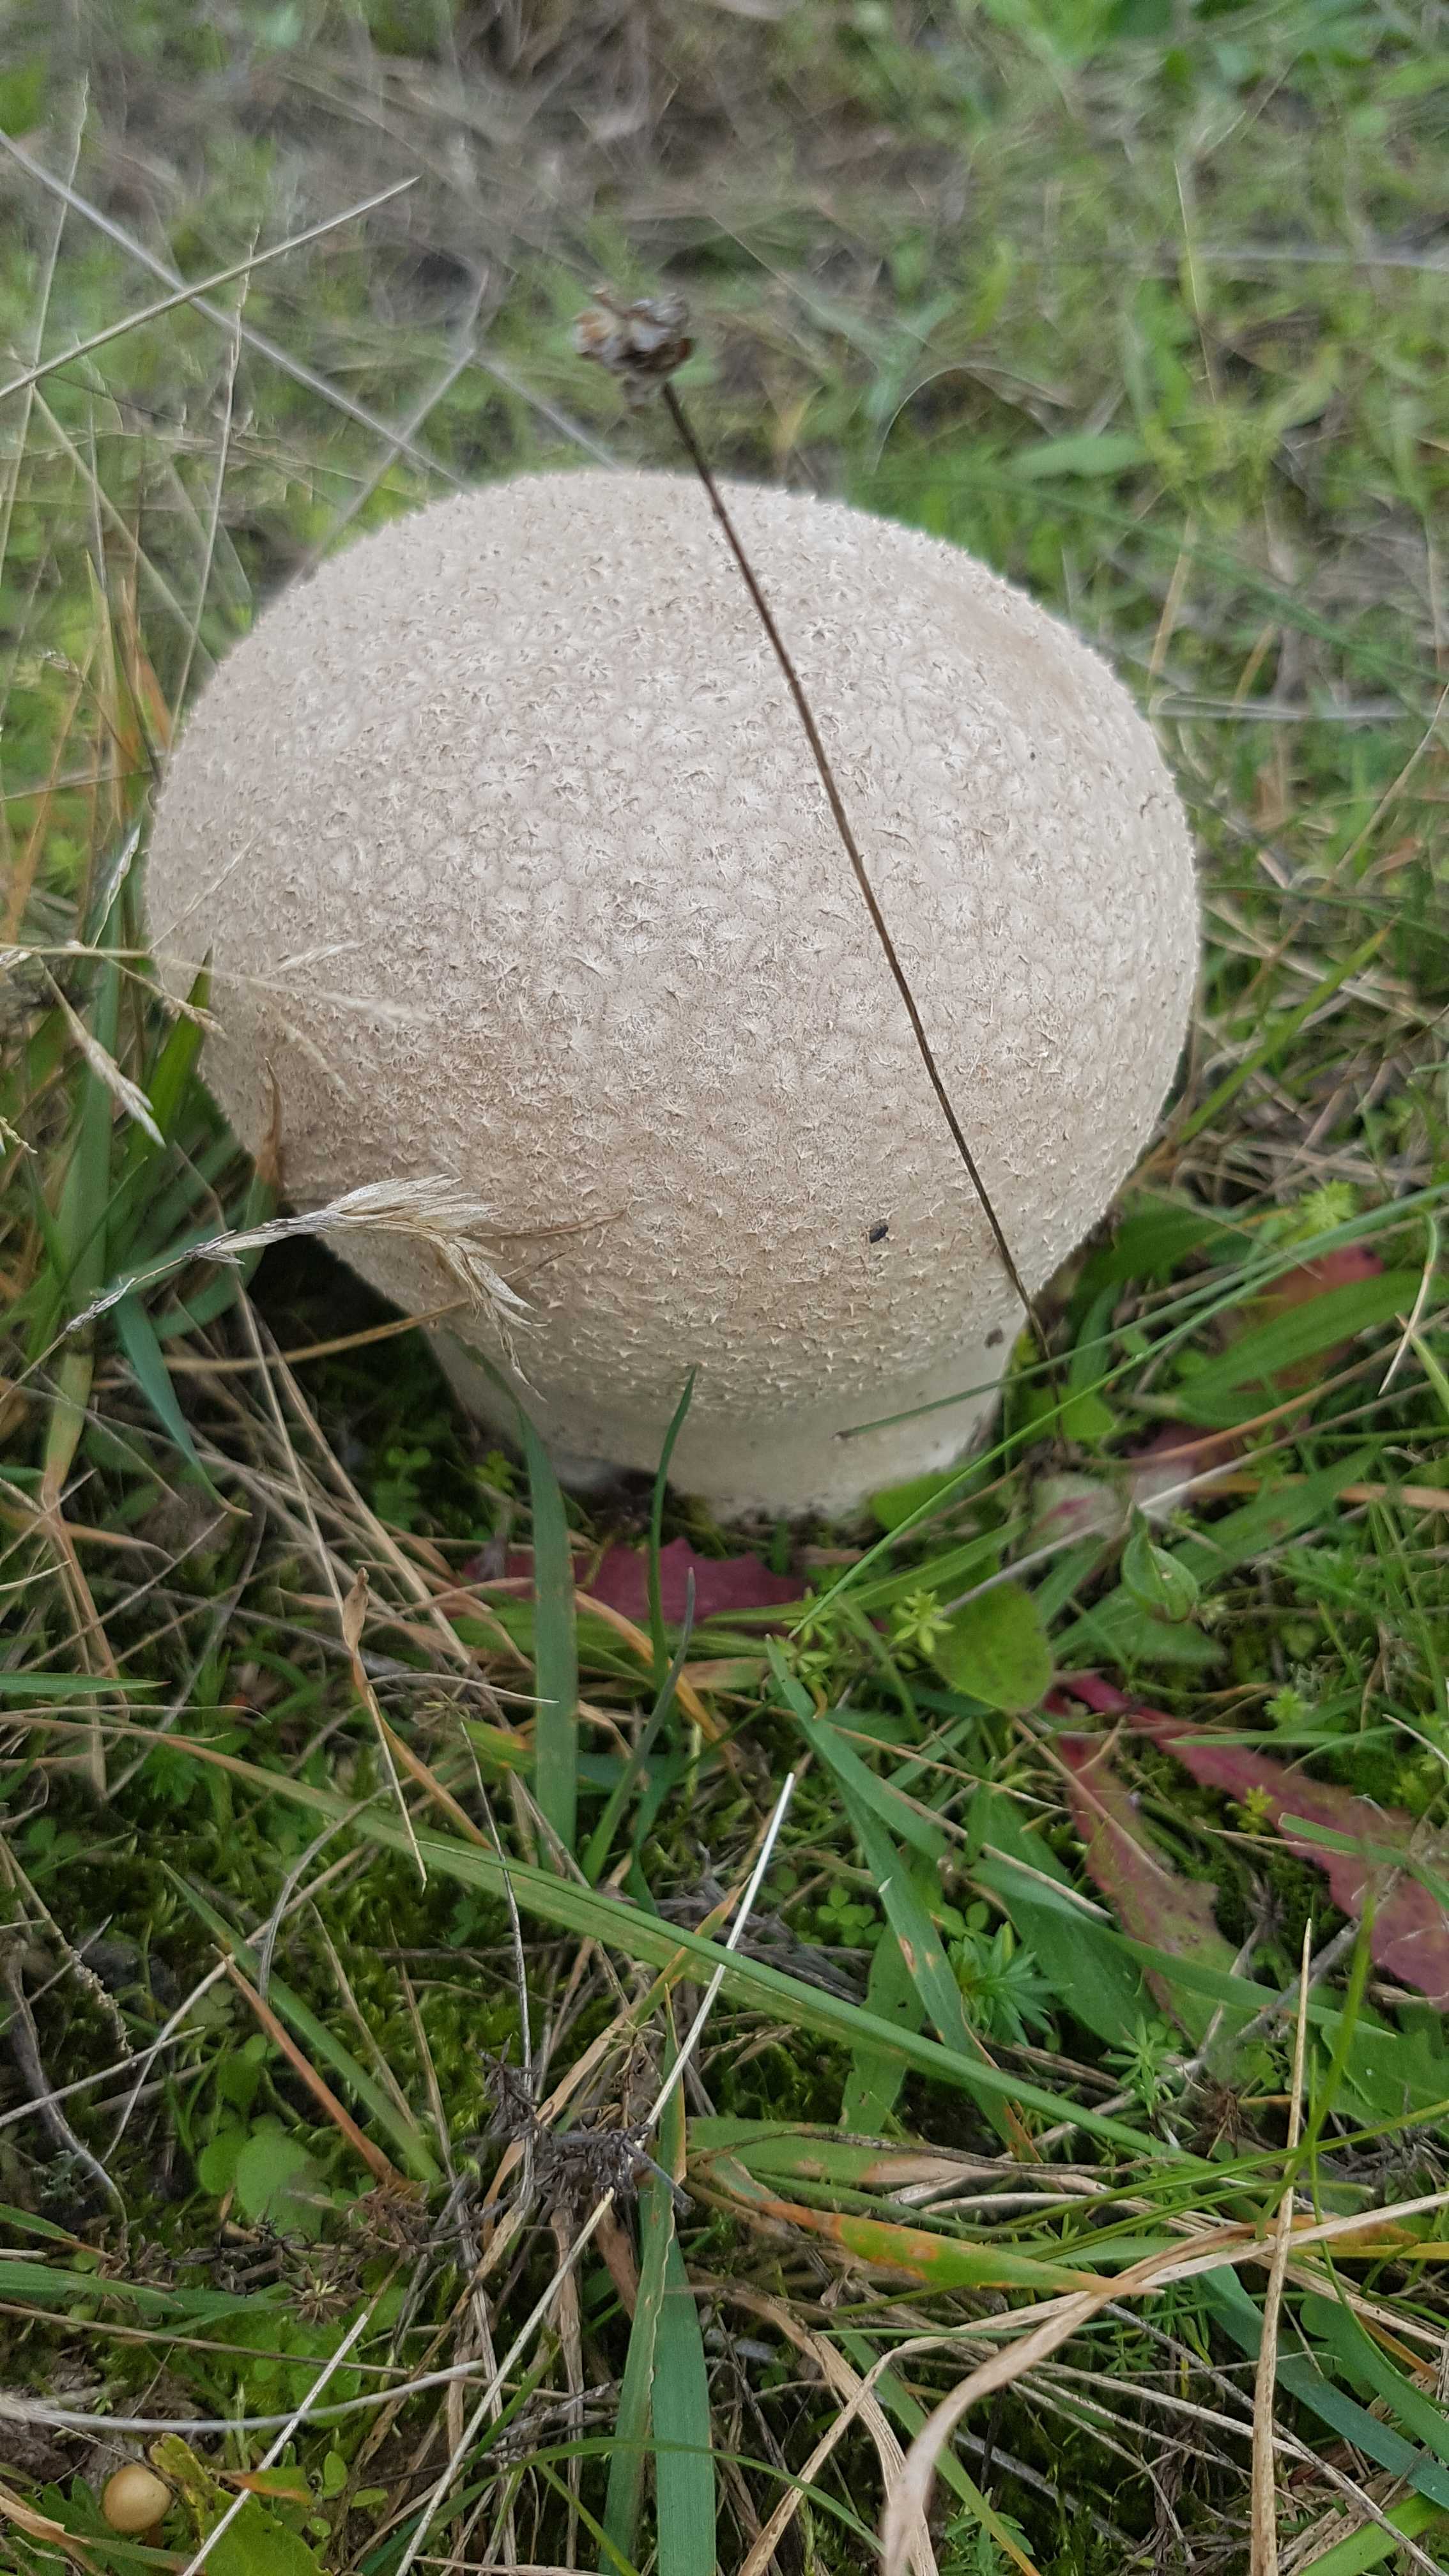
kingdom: Fungi
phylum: Basidiomycota
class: Agaricomycetes
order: Agaricales
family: Lycoperdaceae
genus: Bovistella
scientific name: Bovistella utriformis
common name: skællet støvbold
